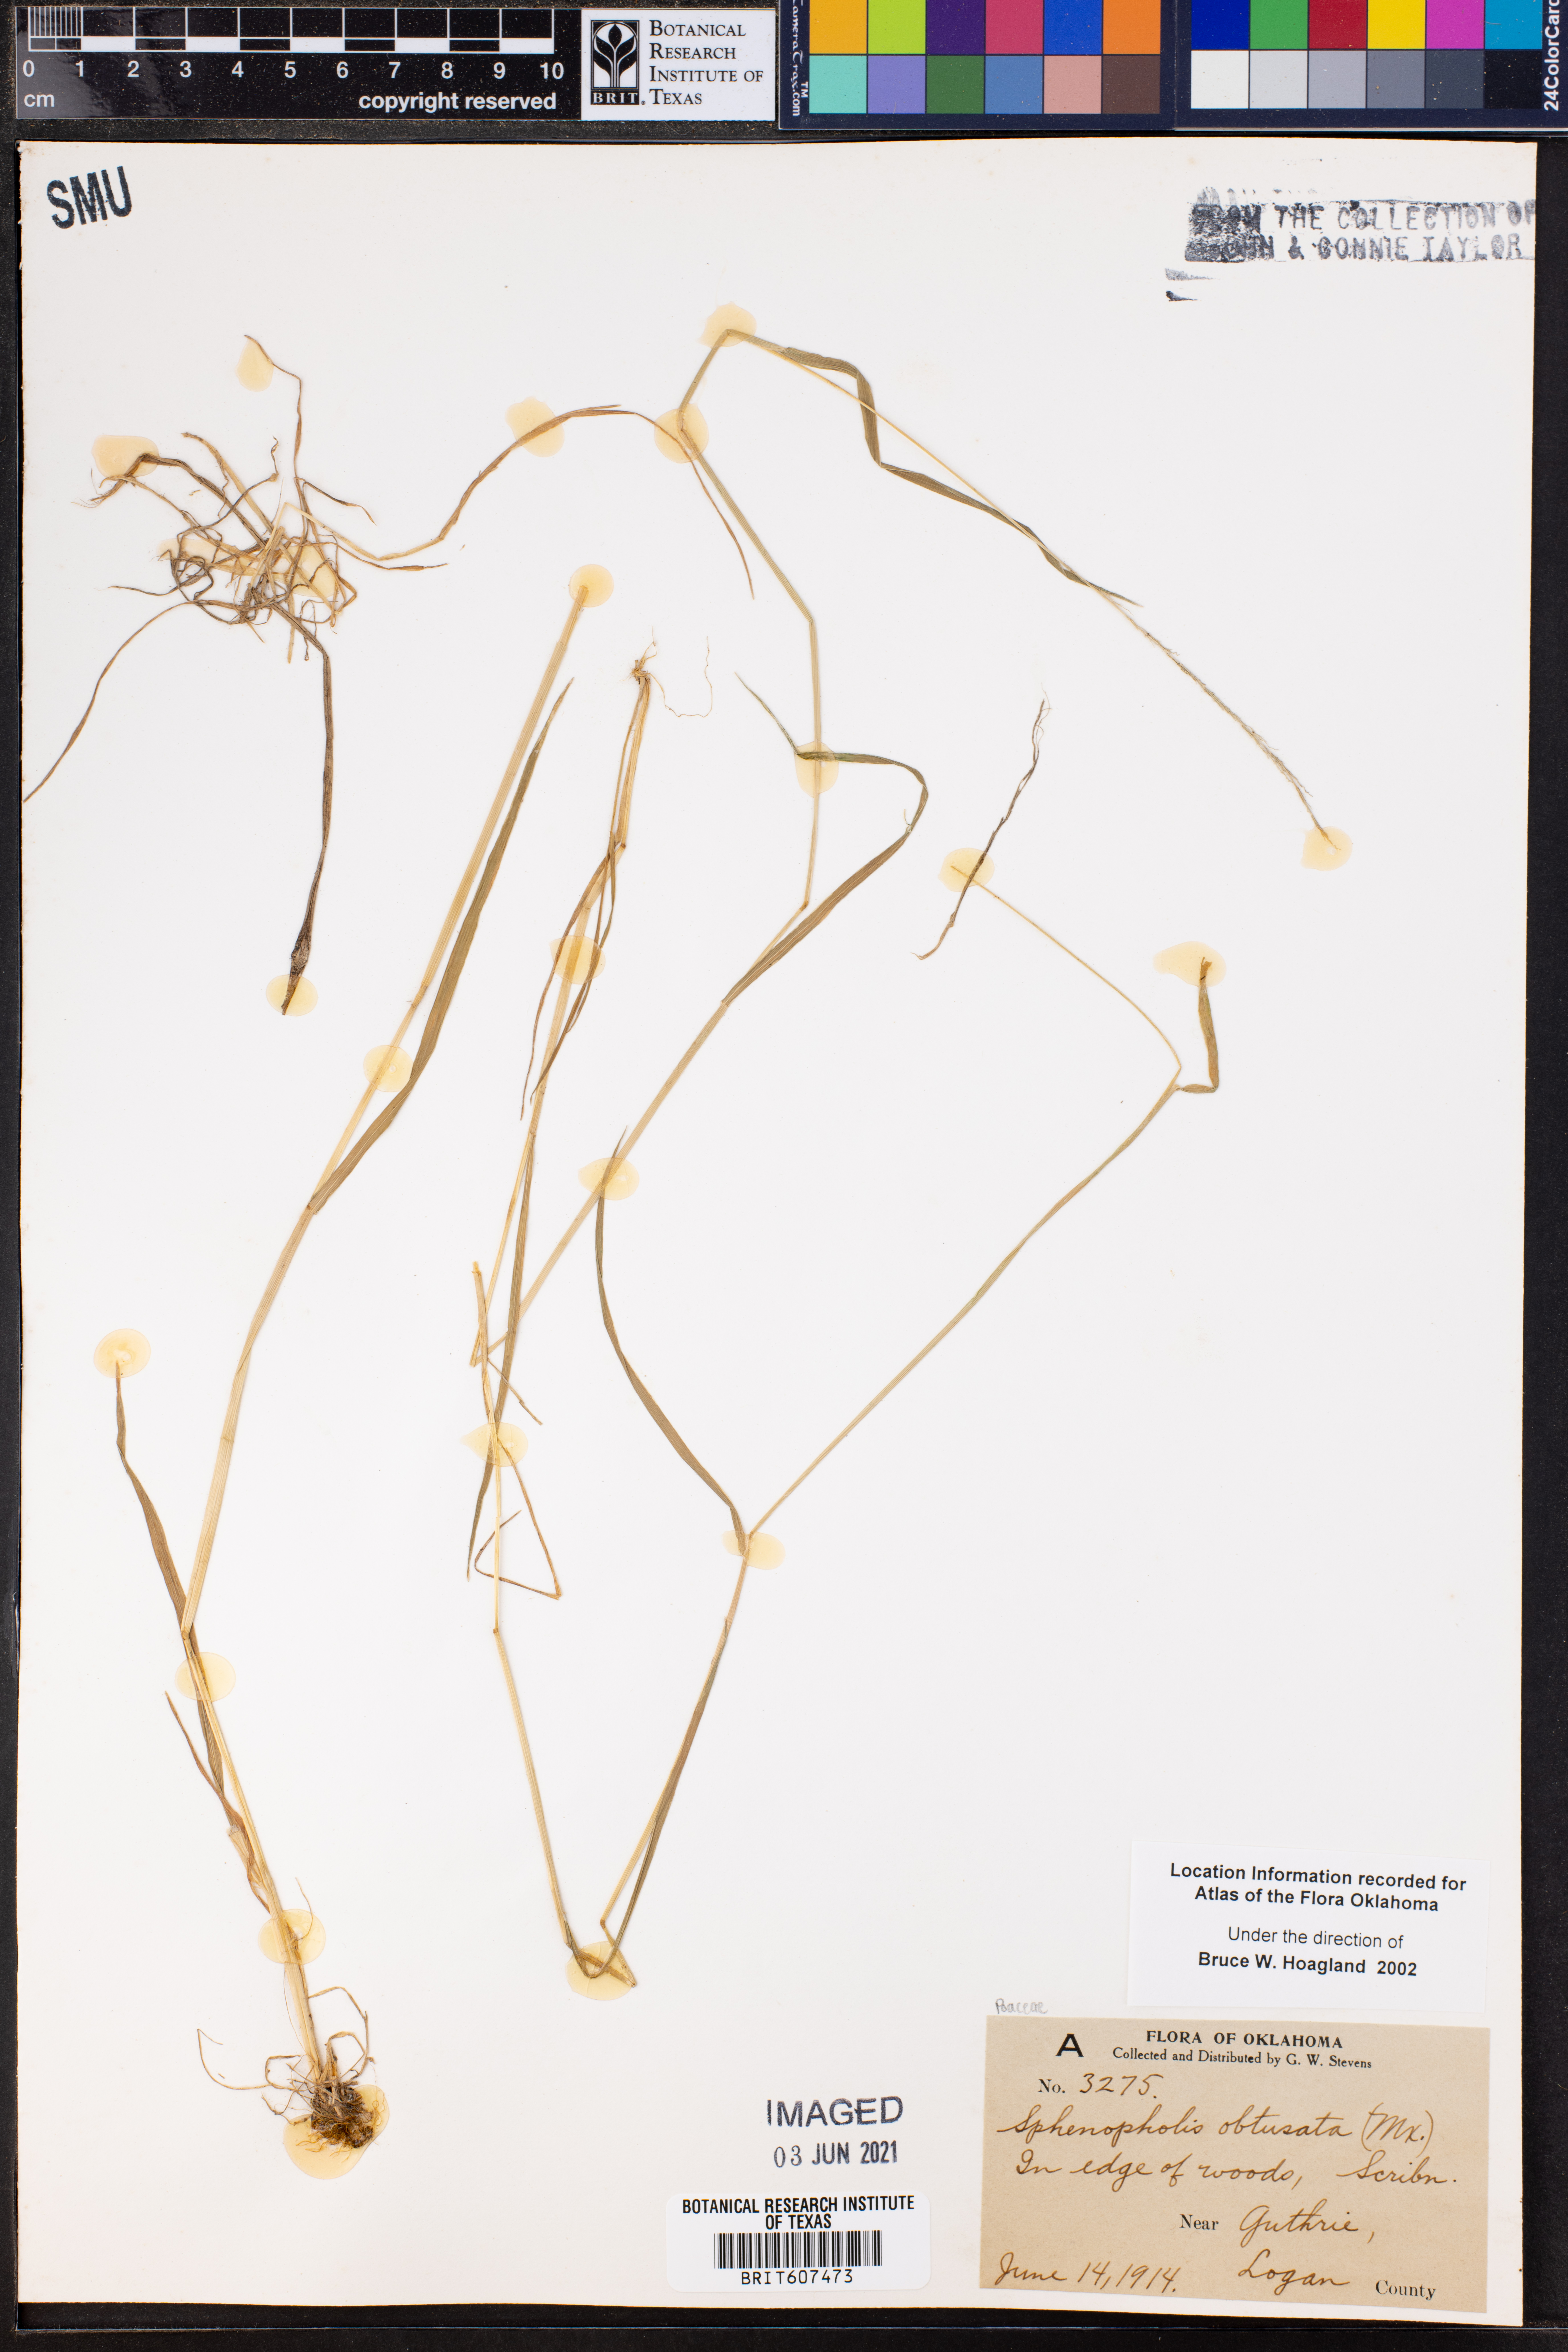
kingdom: Plantae
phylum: Tracheophyta
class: Liliopsida
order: Poales
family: Poaceae
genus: Sphenopholis
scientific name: Sphenopholis obtusata
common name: Prairie grass
